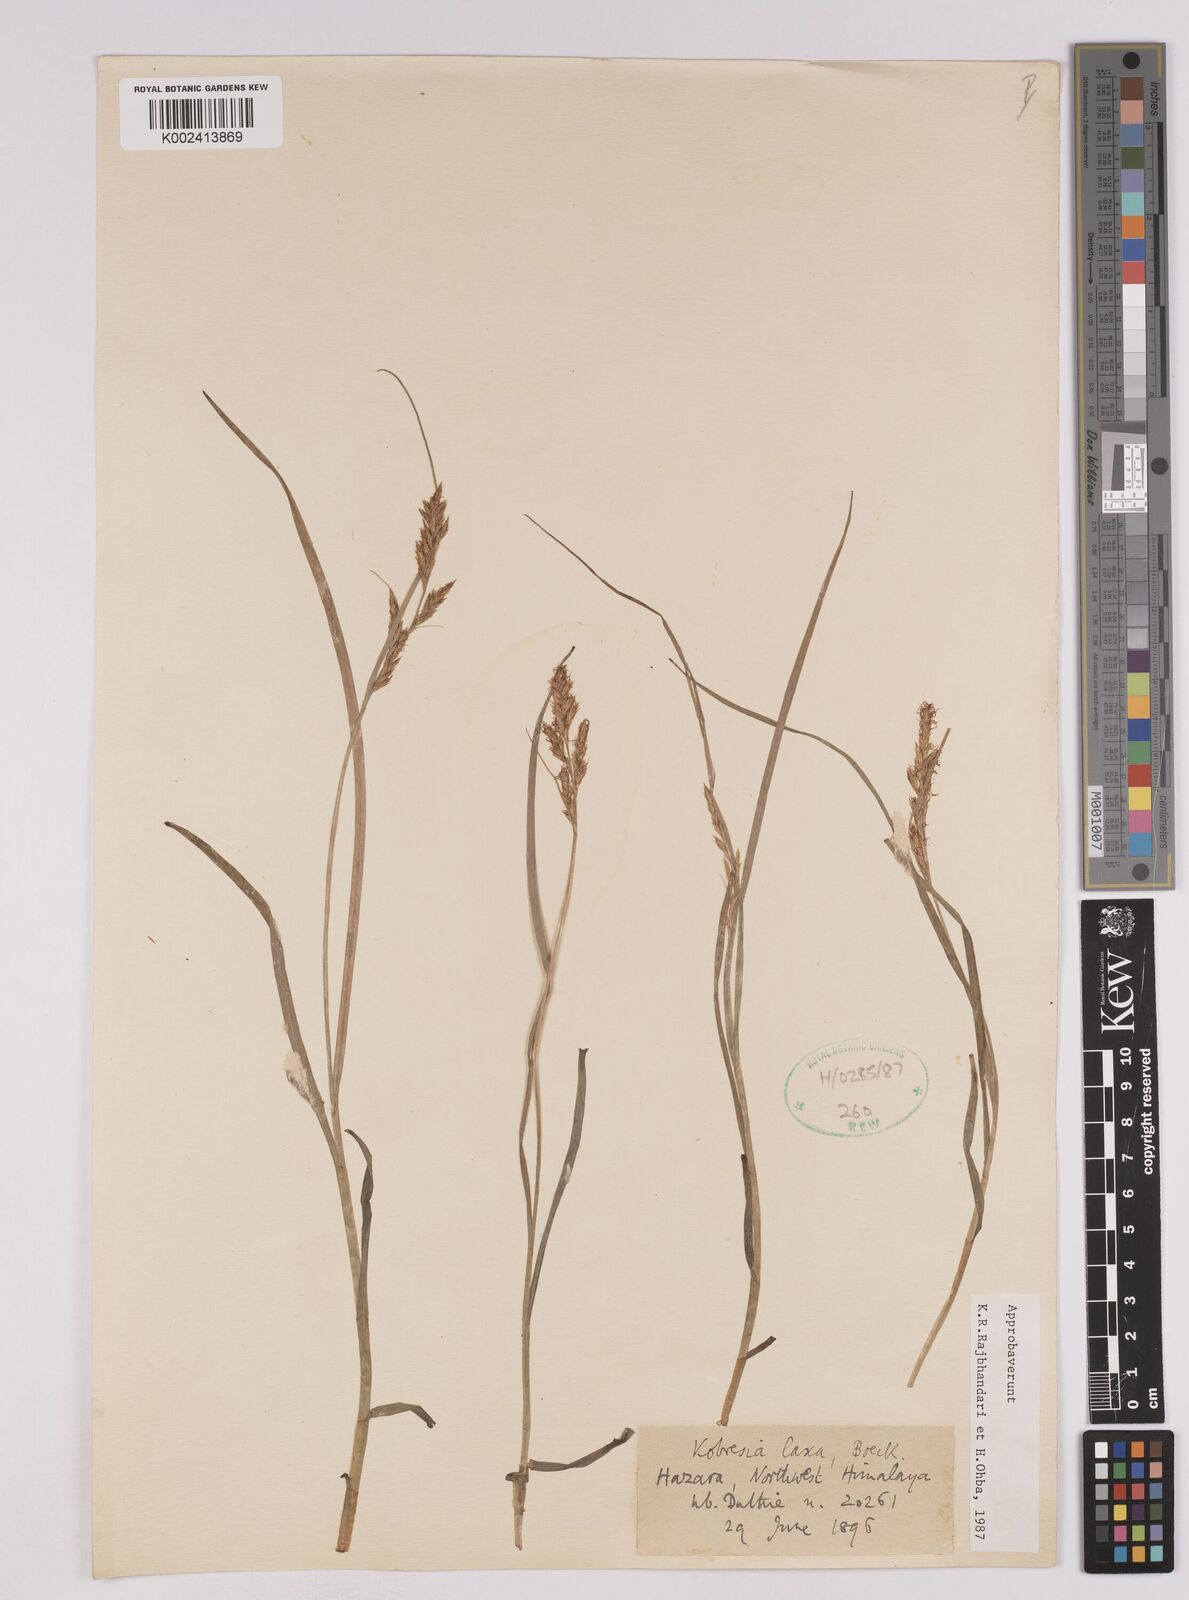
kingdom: Plantae
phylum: Tracheophyta
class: Liliopsida
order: Poales
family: Cyperaceae
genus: Carex
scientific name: Carex pseudolaxa
